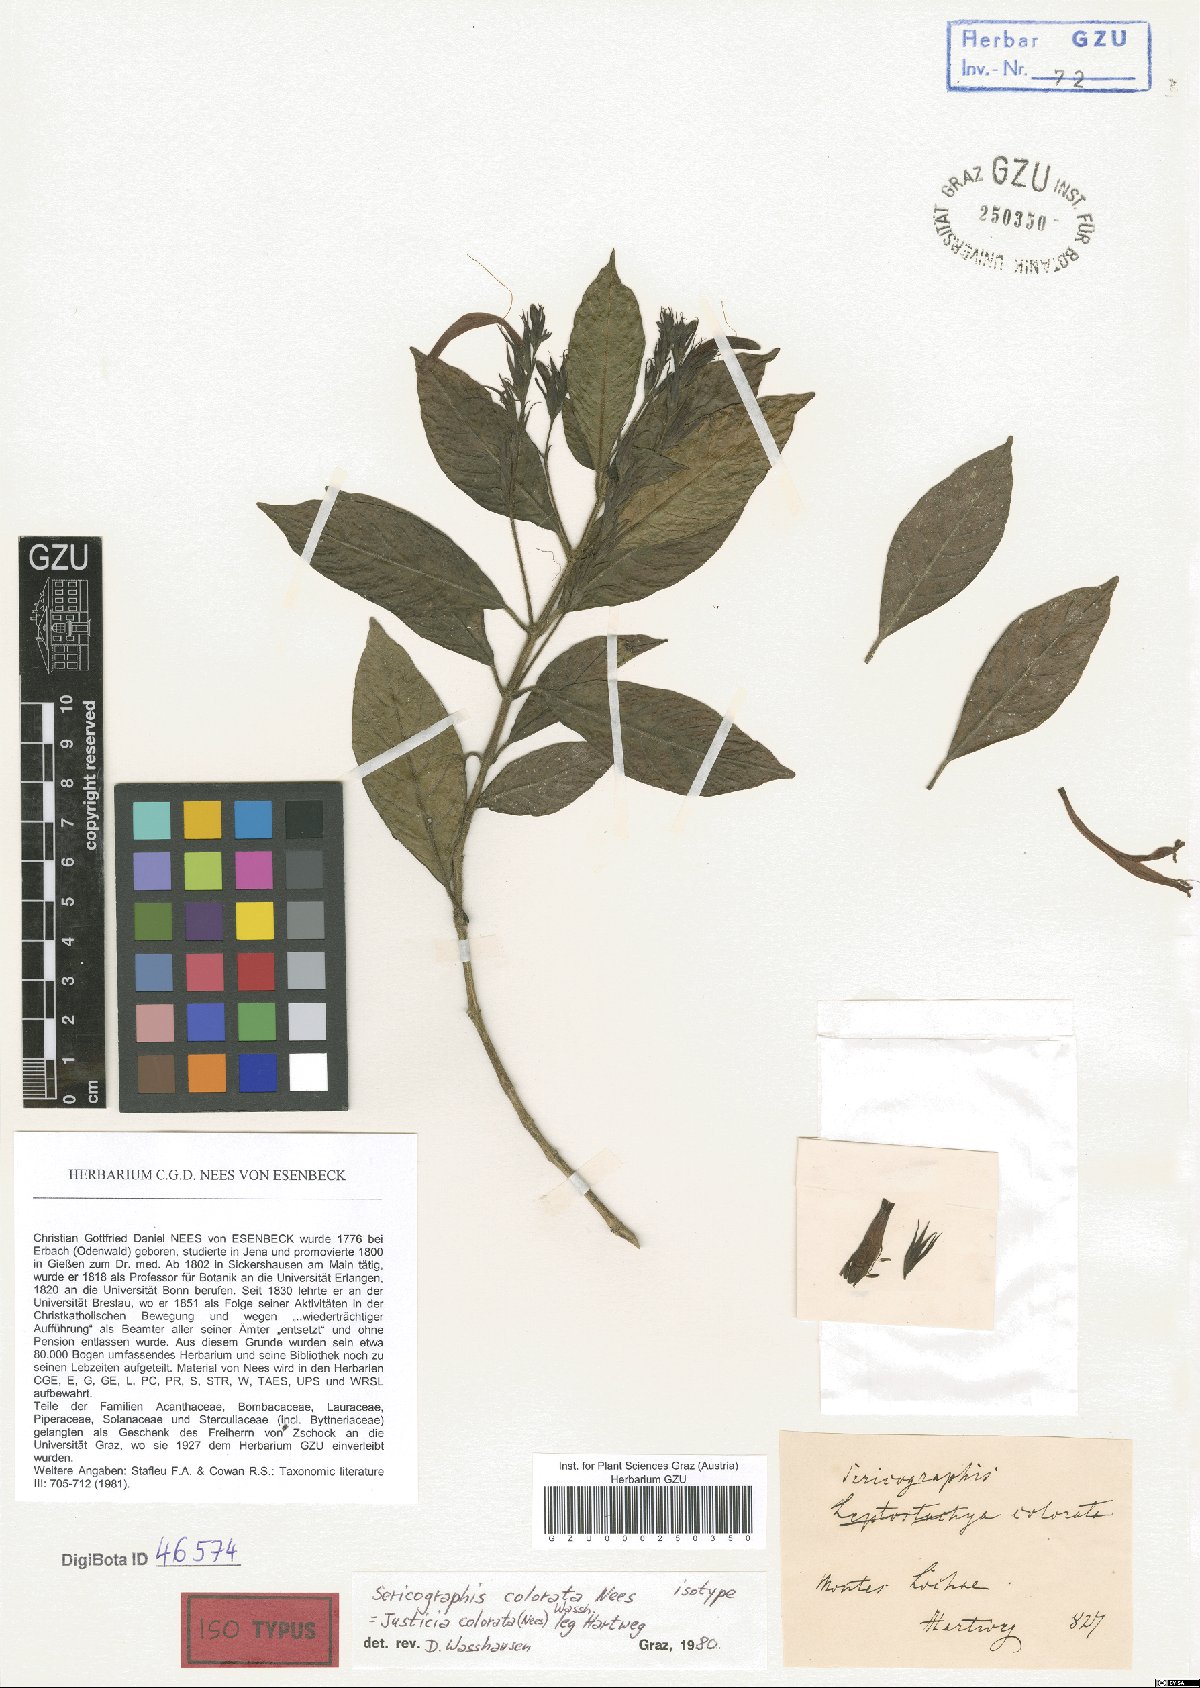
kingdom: Plantae
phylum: Tracheophyta
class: Magnoliopsida
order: Lamiales
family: Acanthaceae
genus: Justicia
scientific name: Justicia colorata
